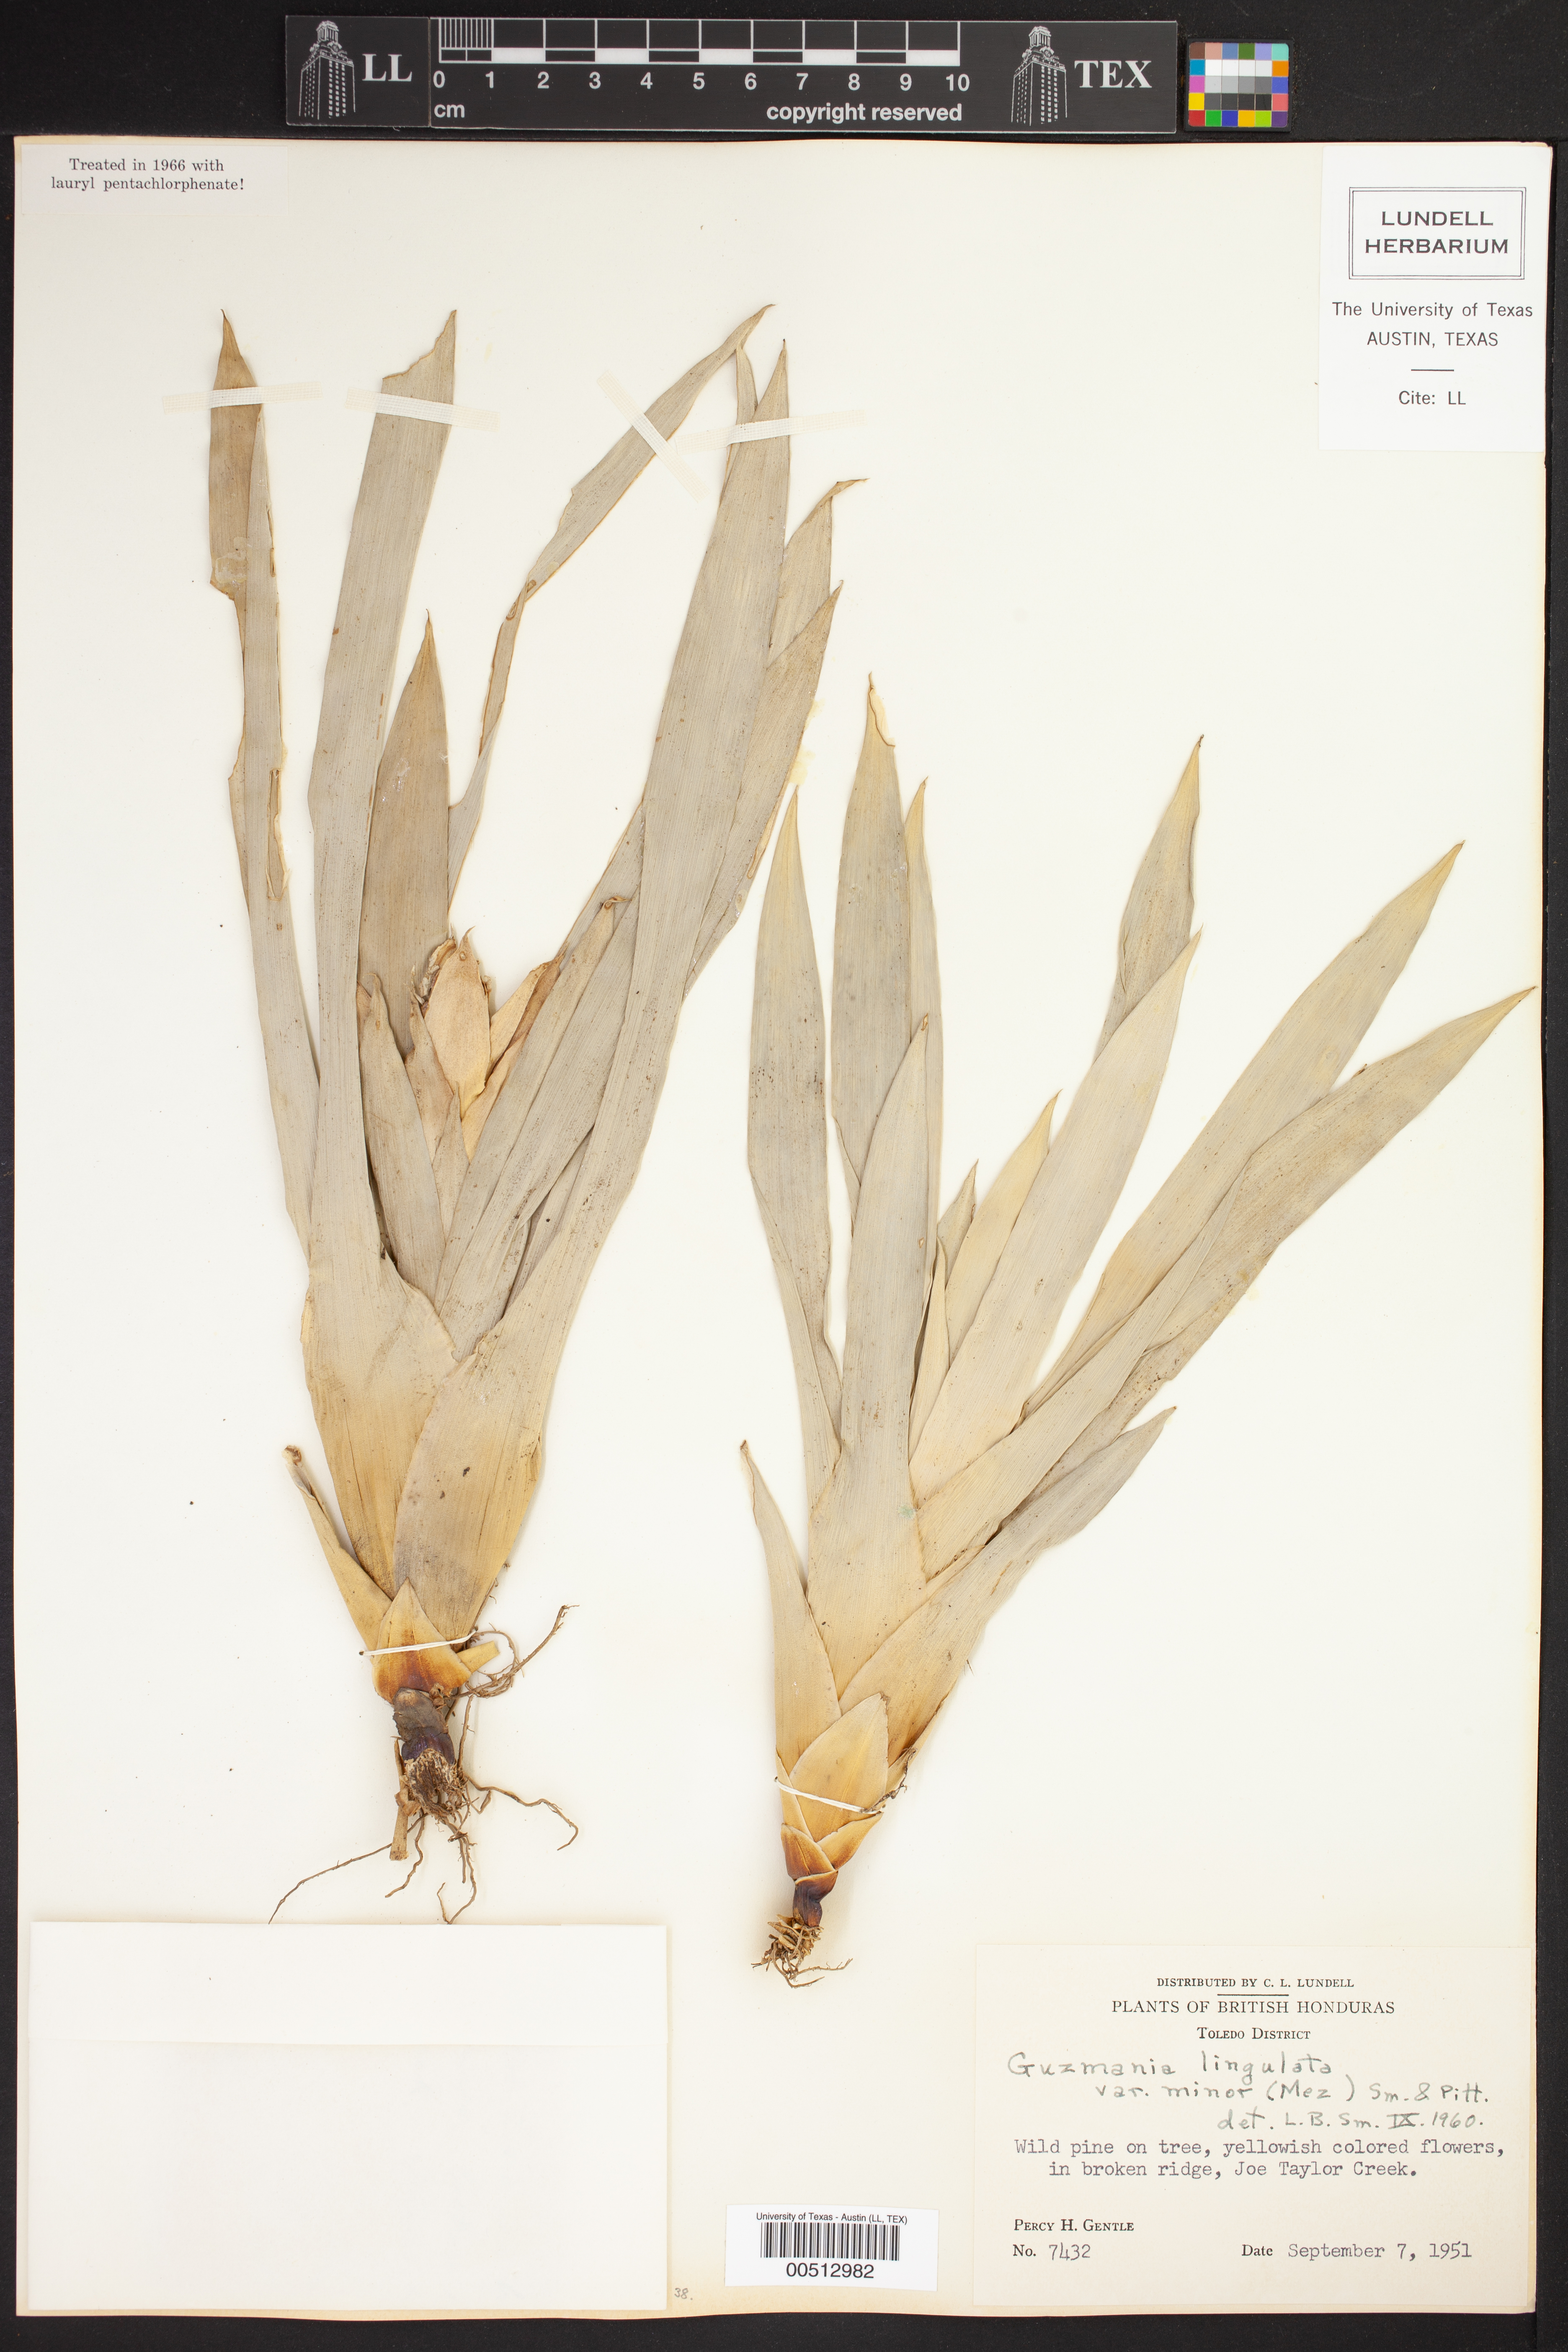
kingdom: Plantae
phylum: Tracheophyta
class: Liliopsida
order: Poales
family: Bromeliaceae
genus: Guzmania
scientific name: Guzmania lingulata
